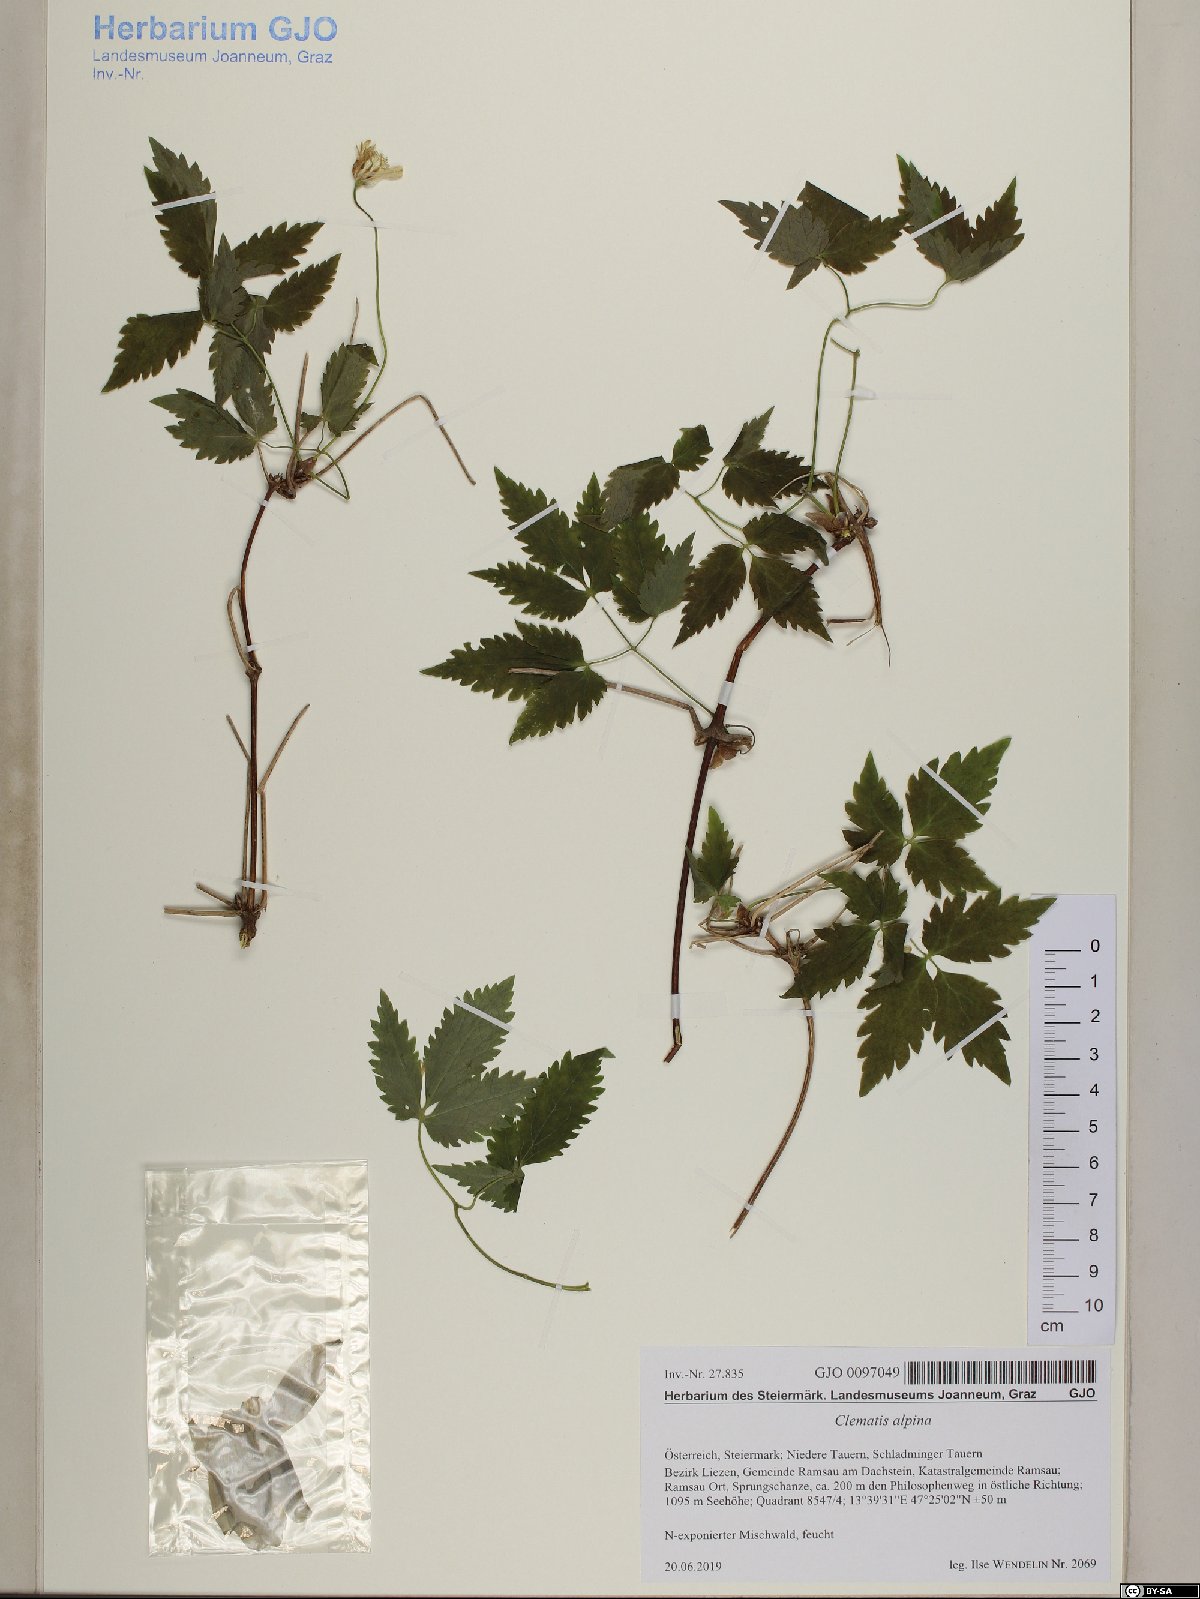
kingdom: Plantae
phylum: Tracheophyta
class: Magnoliopsida
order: Ranunculales
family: Ranunculaceae
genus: Clematis
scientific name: Clematis alpina
